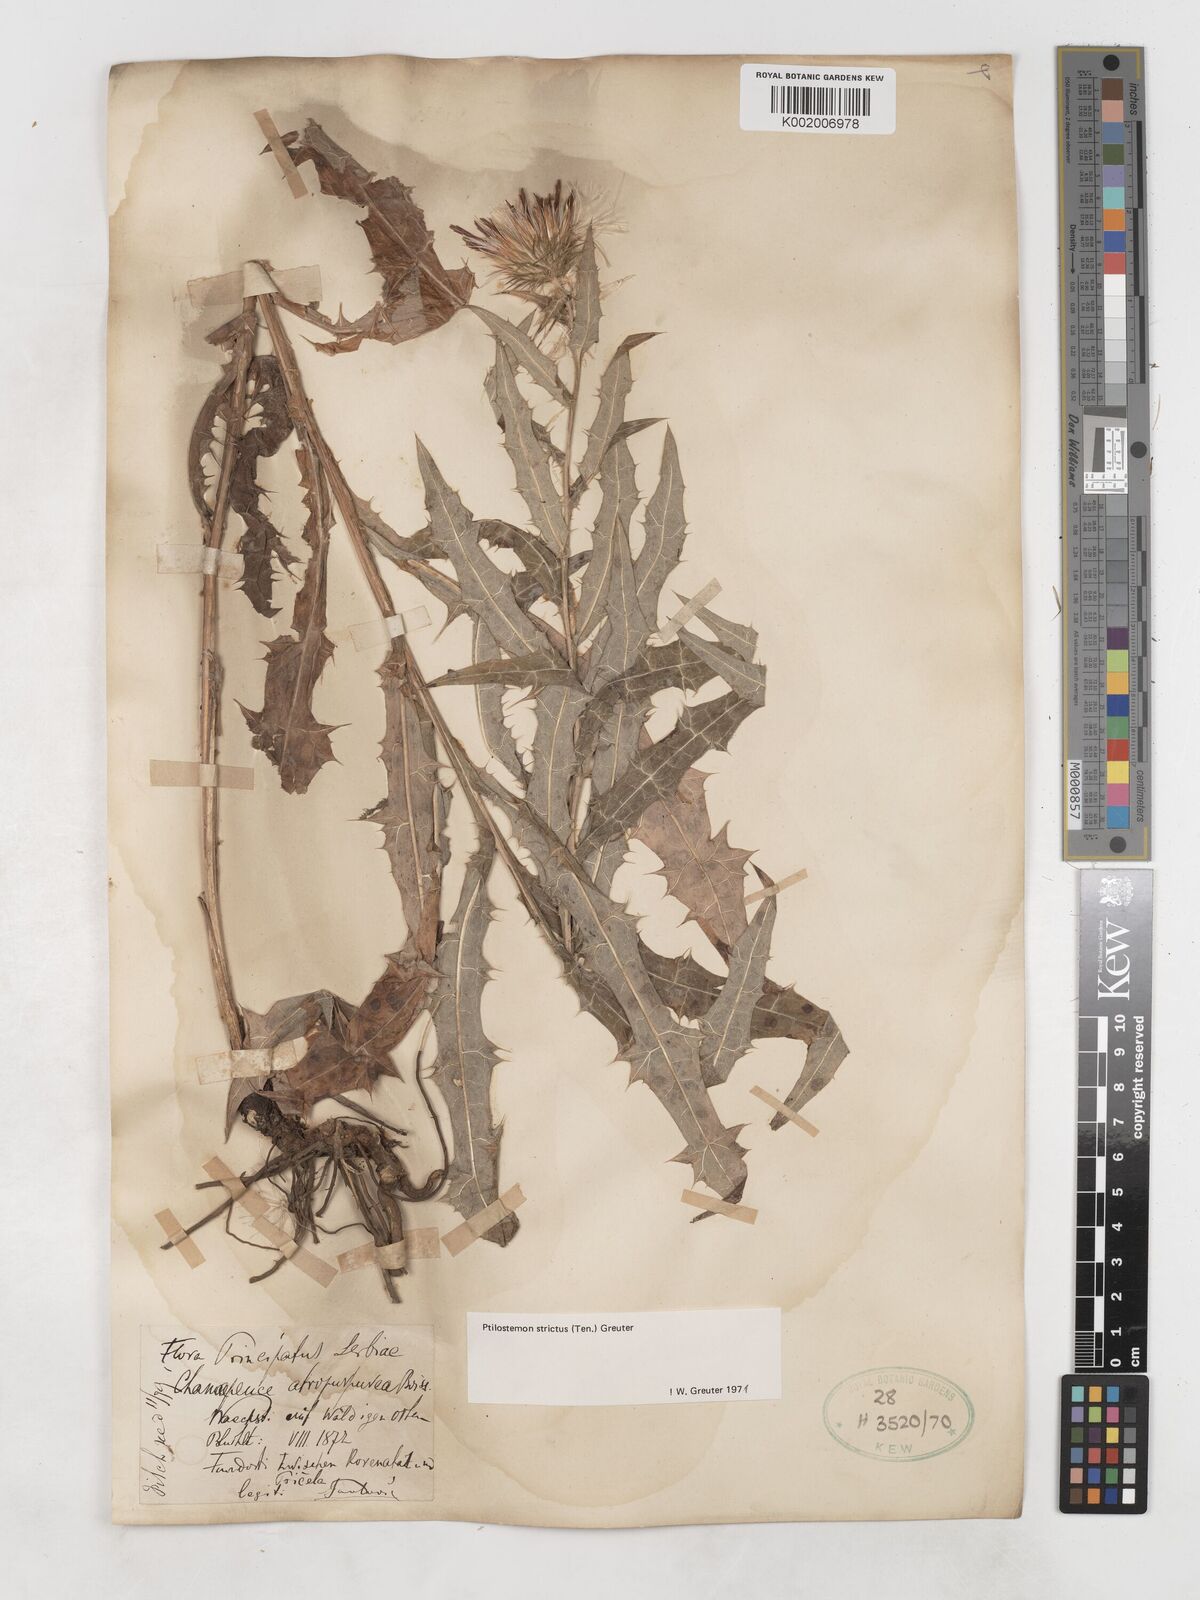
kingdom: Plantae
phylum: Tracheophyta
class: Magnoliopsida
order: Asterales
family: Asteraceae
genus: Ptilostemon
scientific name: Ptilostemon strictus
